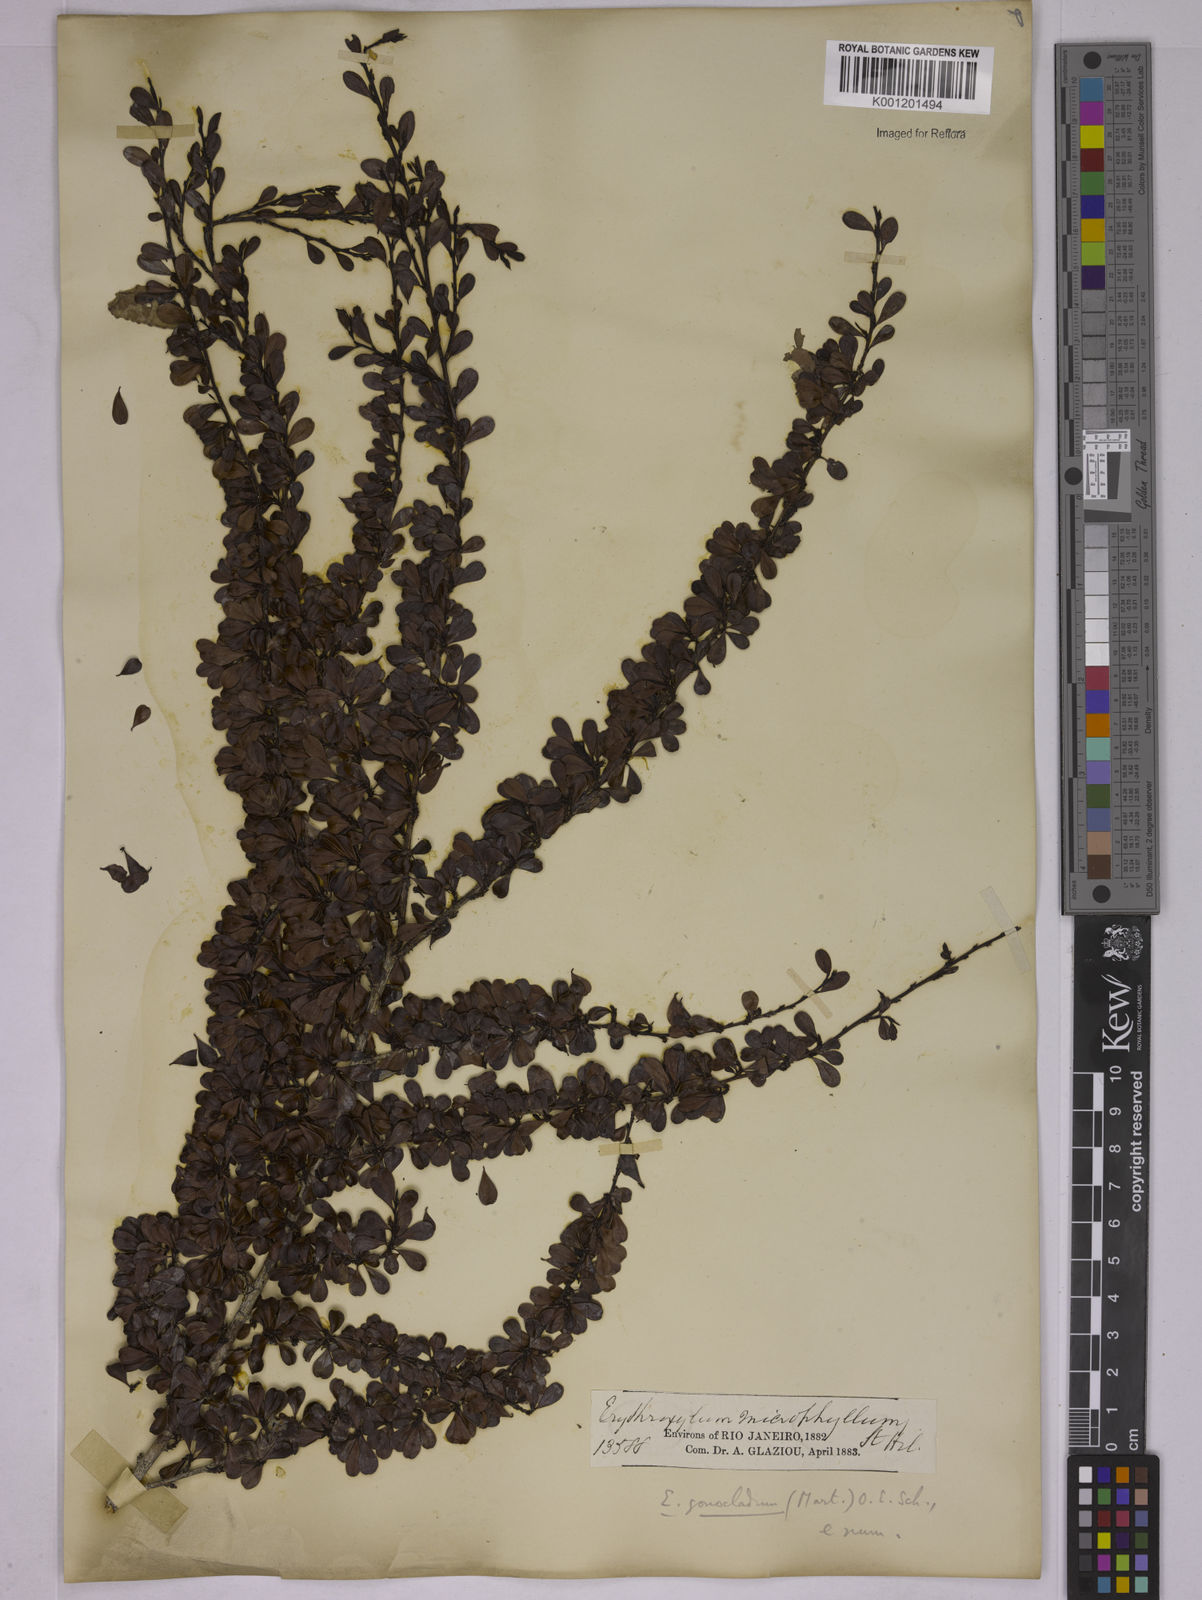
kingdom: Plantae
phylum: Tracheophyta
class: Magnoliopsida
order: Malpighiales
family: Erythroxylaceae
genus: Erythroxylum
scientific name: Erythroxylum
